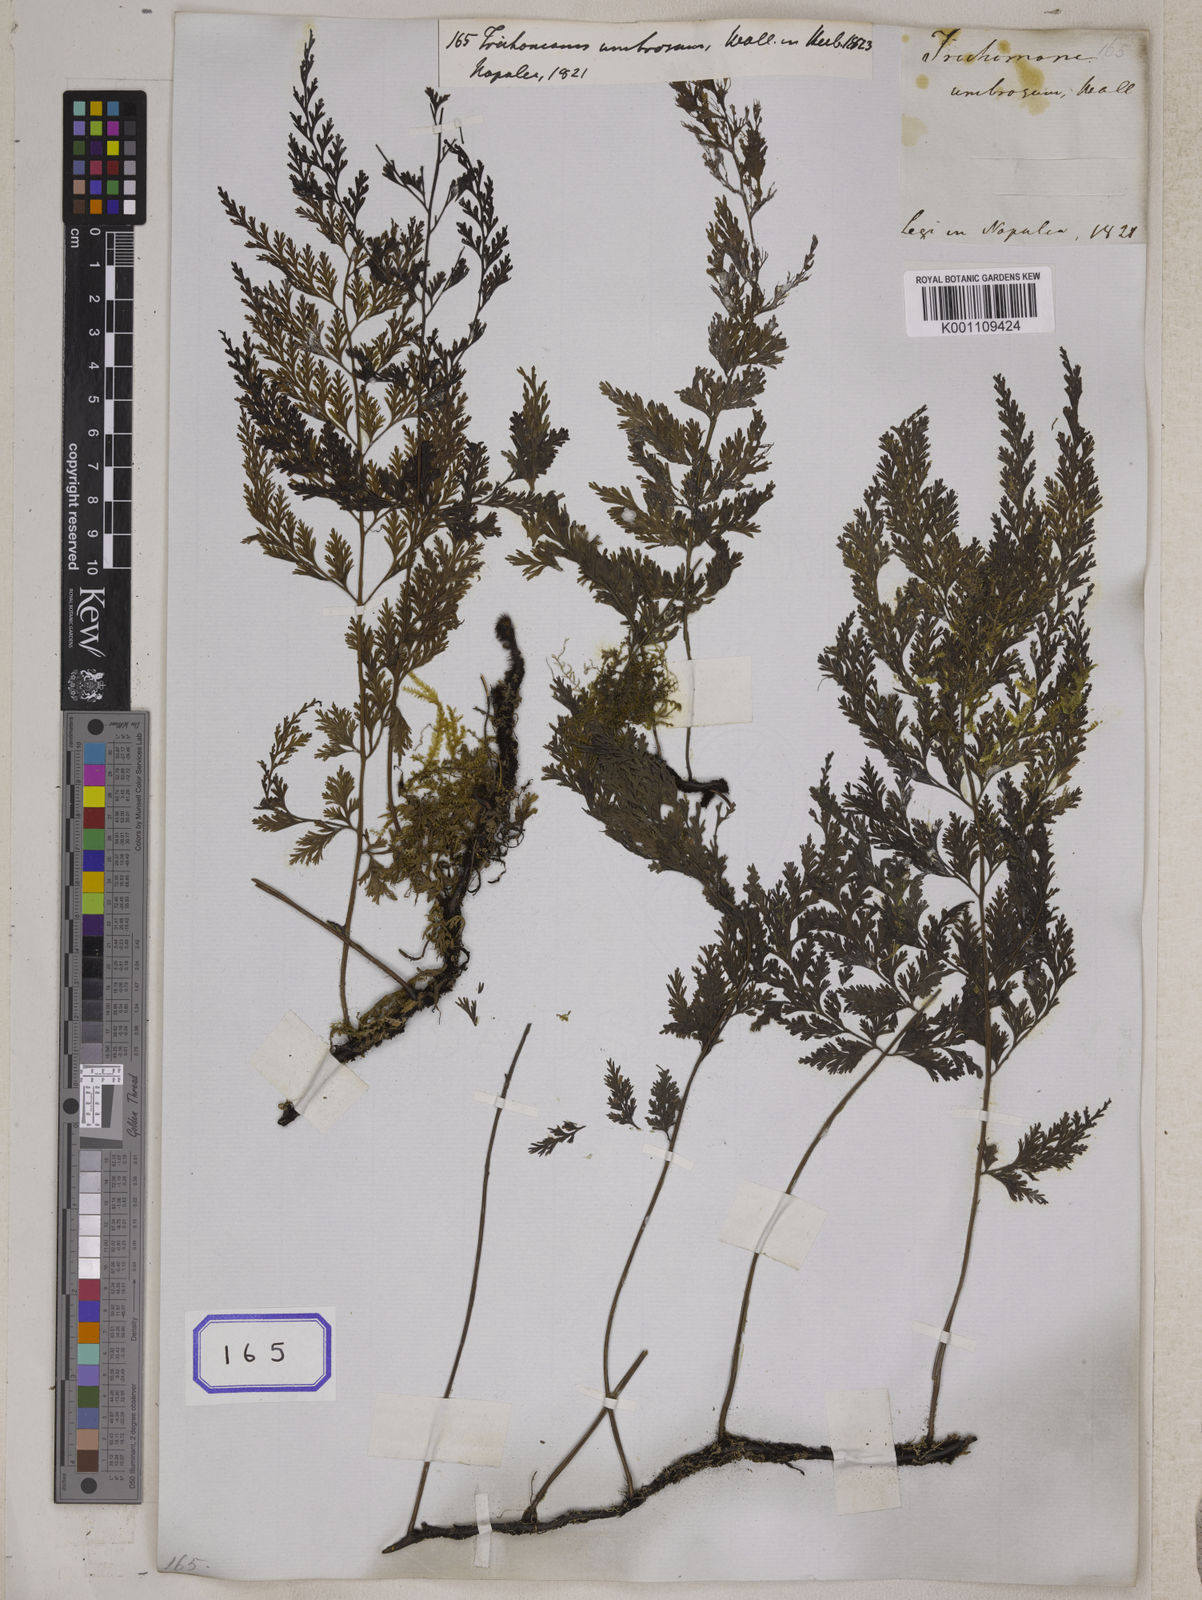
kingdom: Plantae
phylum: Tracheophyta
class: Polypodiopsida
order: Hymenophyllales
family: Hymenophyllaceae
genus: Vandenboschia
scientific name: Vandenboschia birmanica
